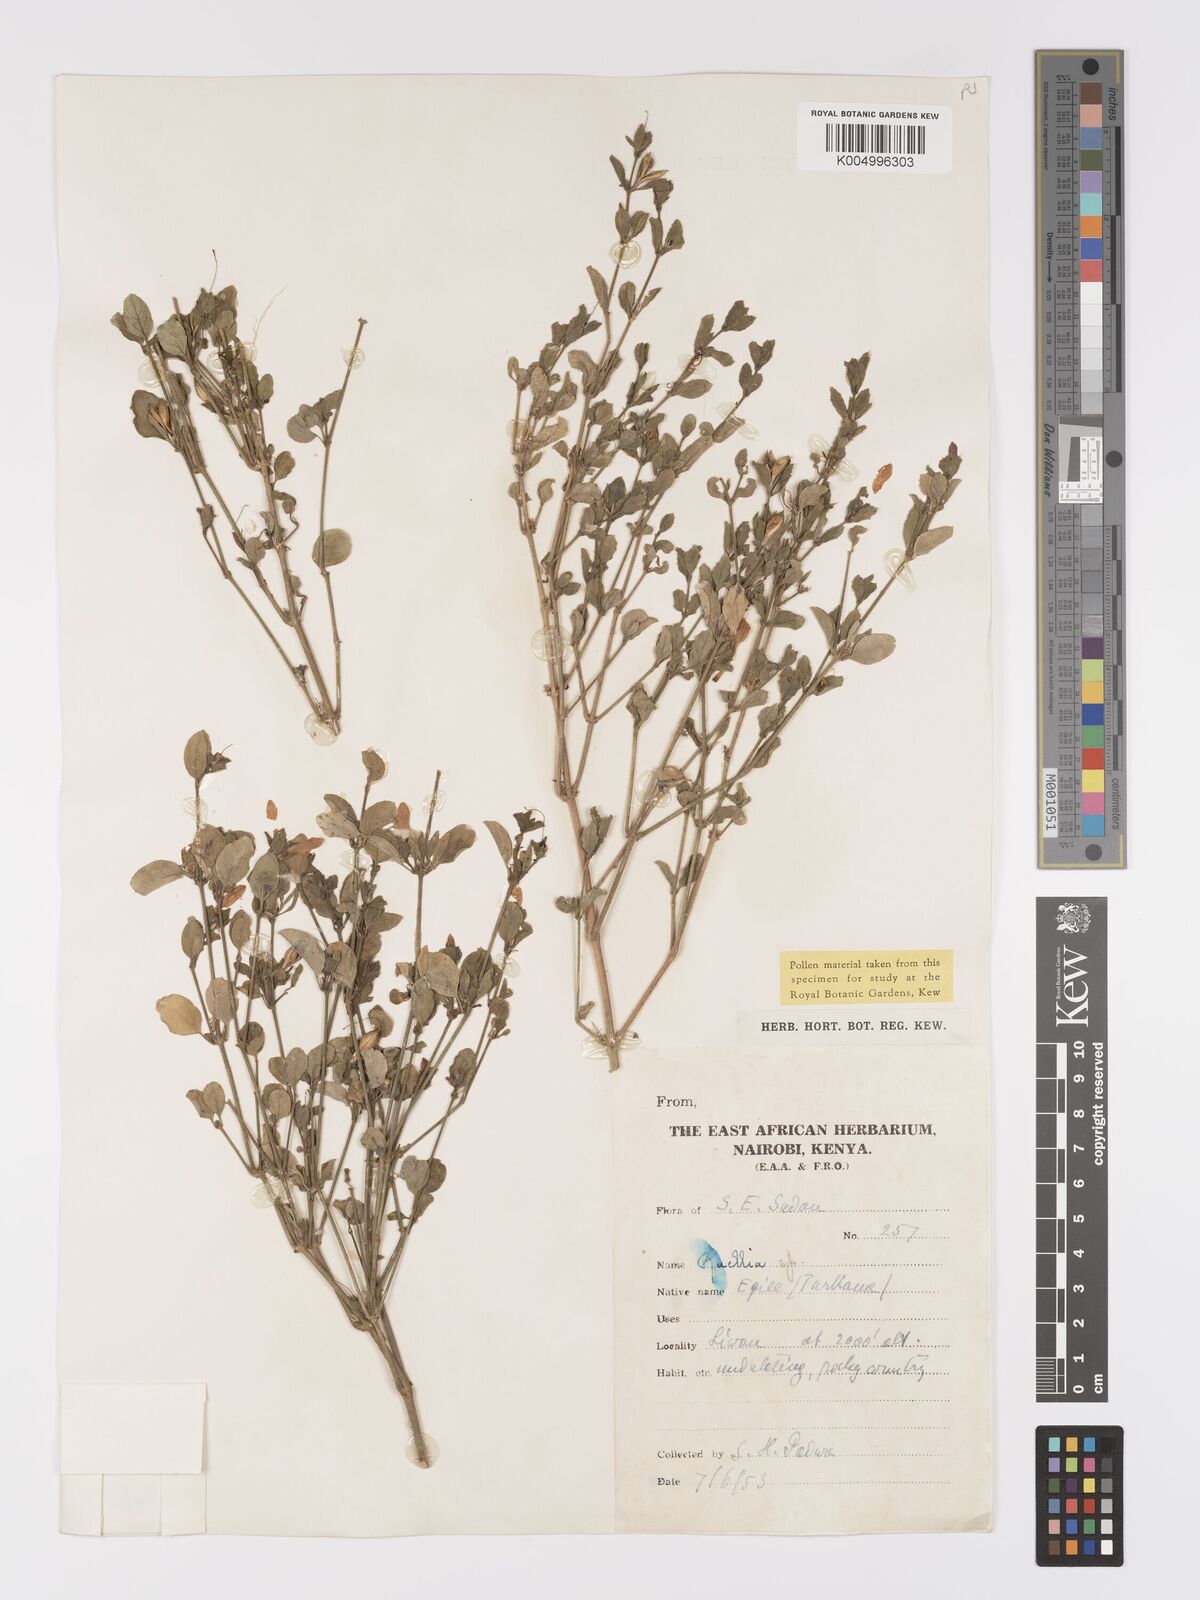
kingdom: Plantae
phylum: Tracheophyta
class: Magnoliopsida
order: Lamiales
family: Acanthaceae
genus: Ruellia
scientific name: Ruellia patula
